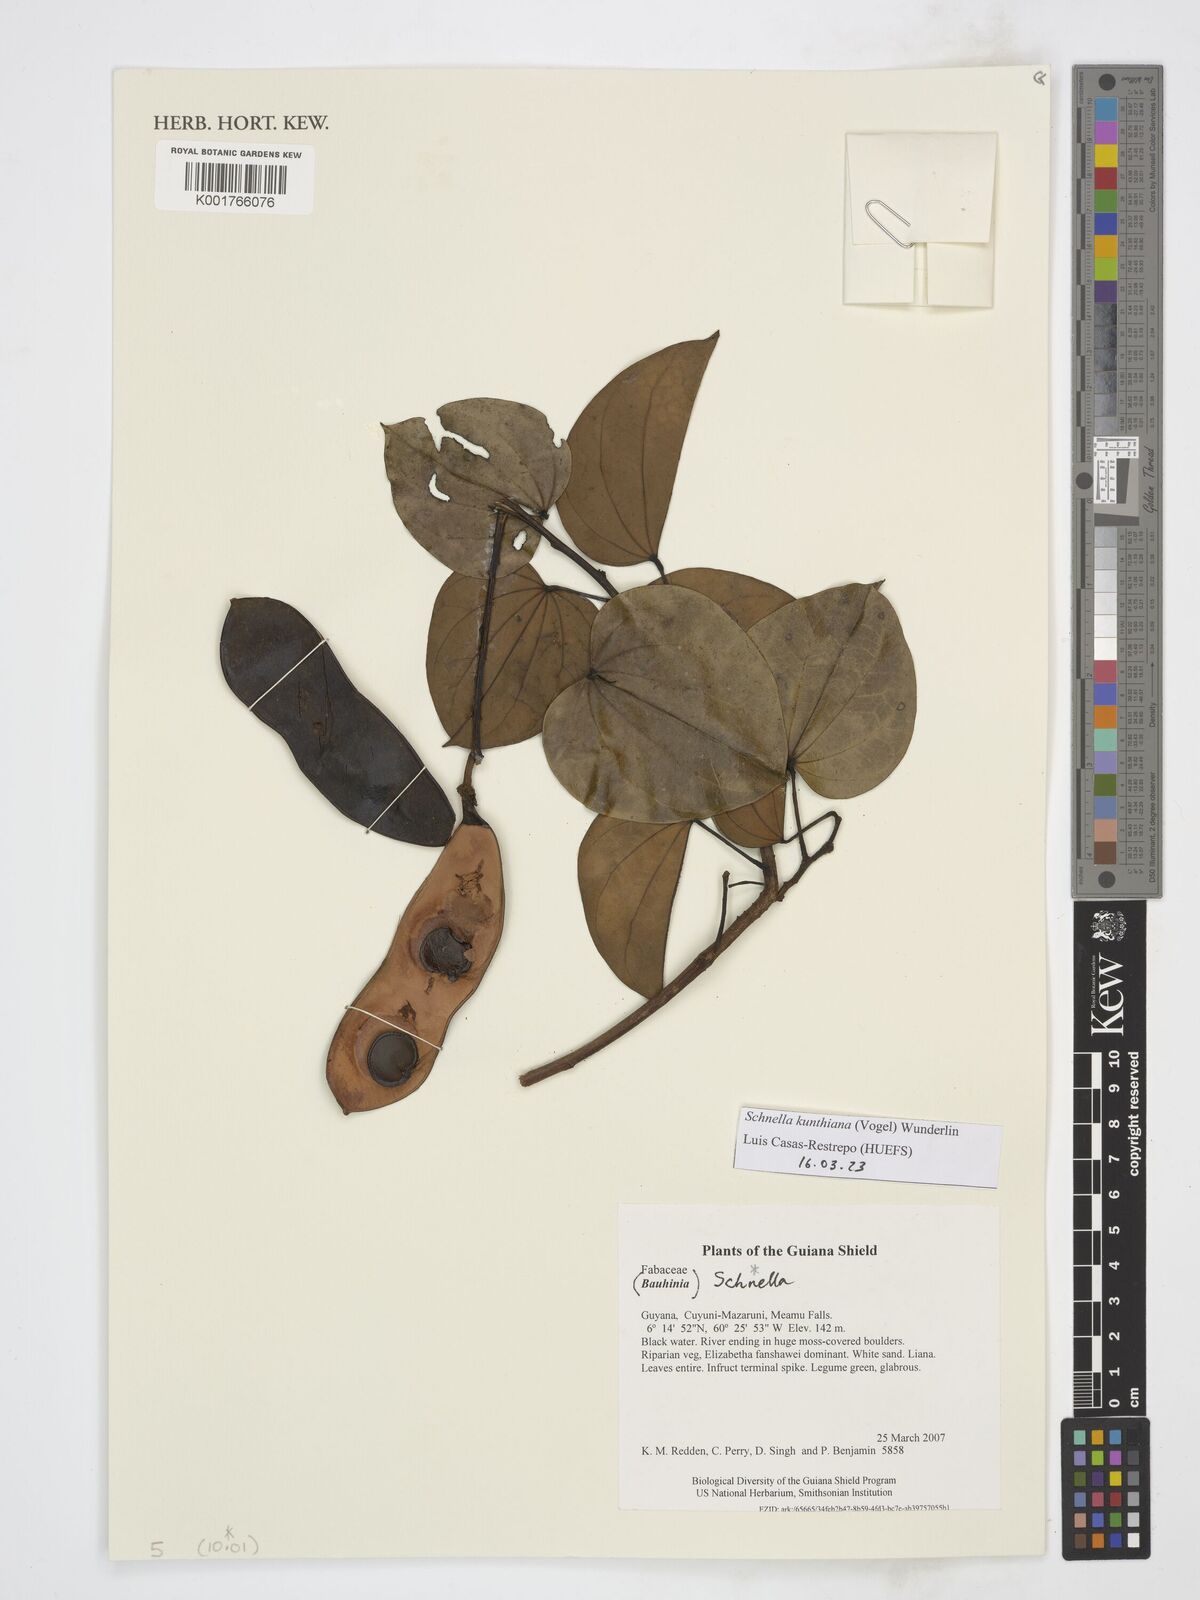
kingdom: Plantae
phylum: Tracheophyta
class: Magnoliopsida
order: Fabales
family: Fabaceae
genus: Schnella
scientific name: Schnella kunthiana
